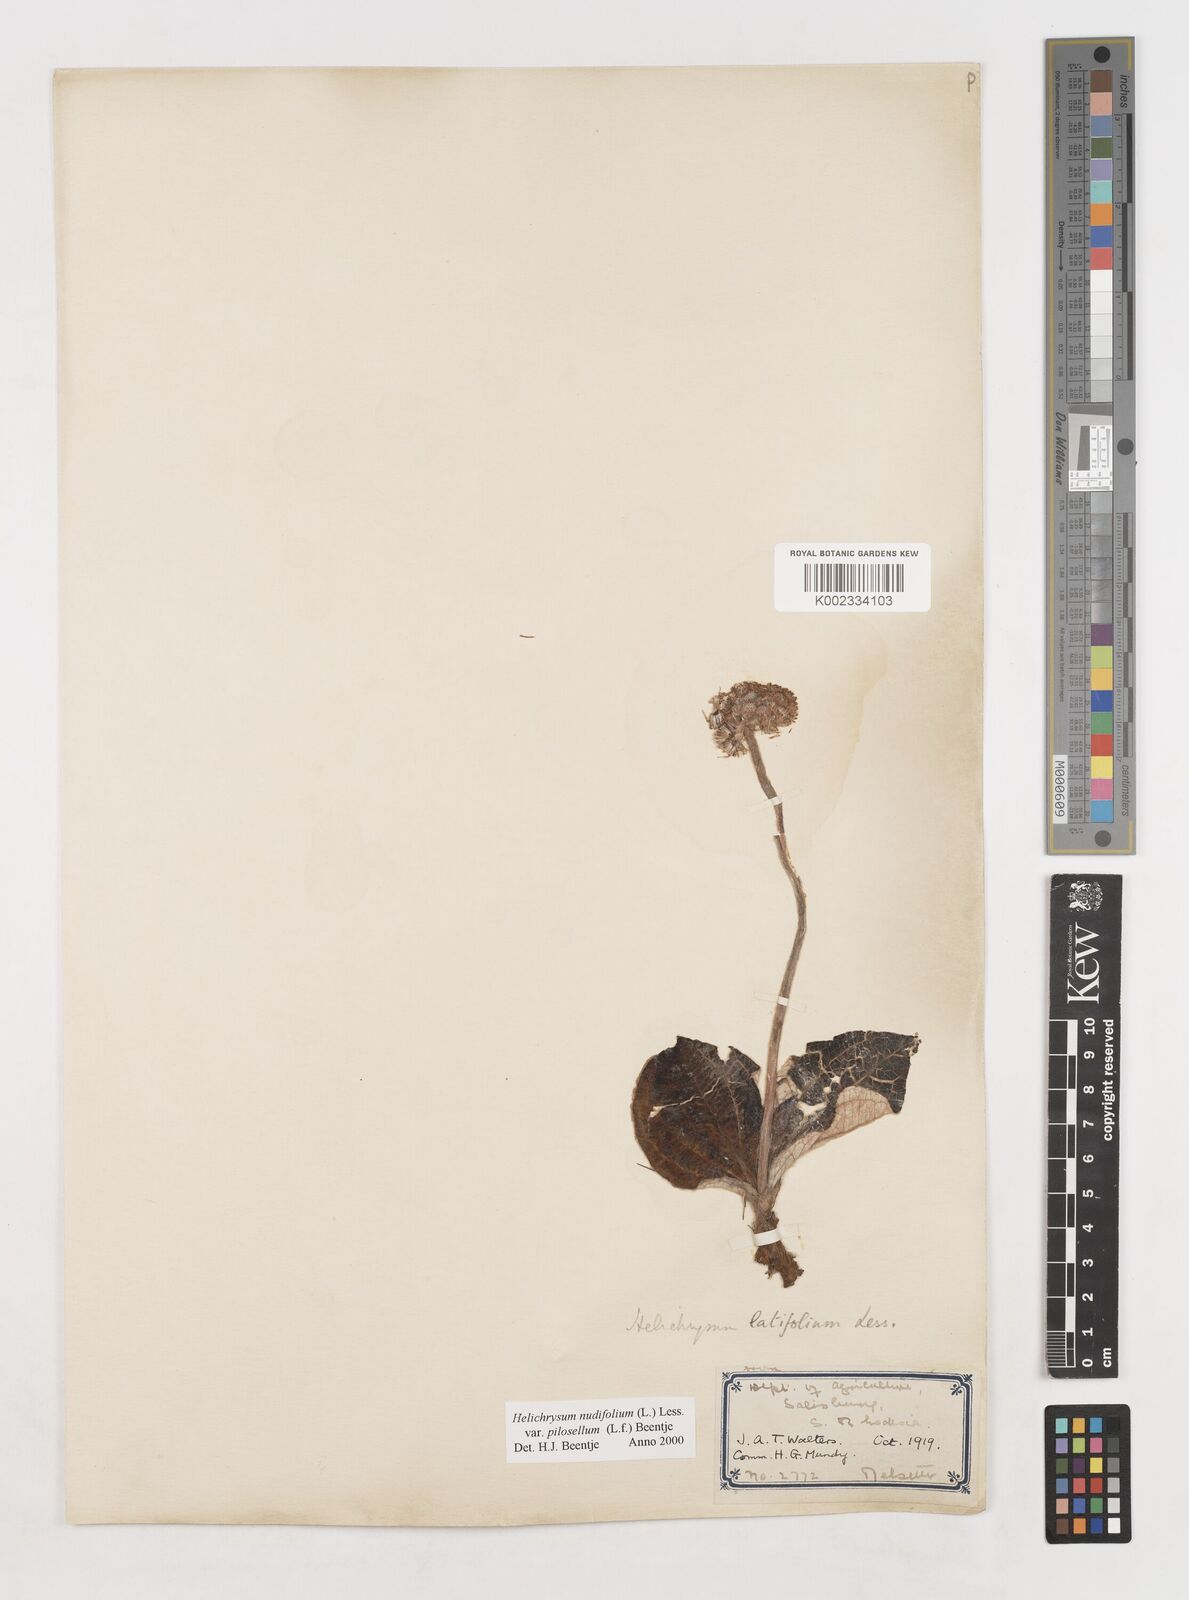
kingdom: Plantae
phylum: Tracheophyta
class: Magnoliopsida
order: Asterales
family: Asteraceae
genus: Helichrysum
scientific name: Helichrysum nudifolium
